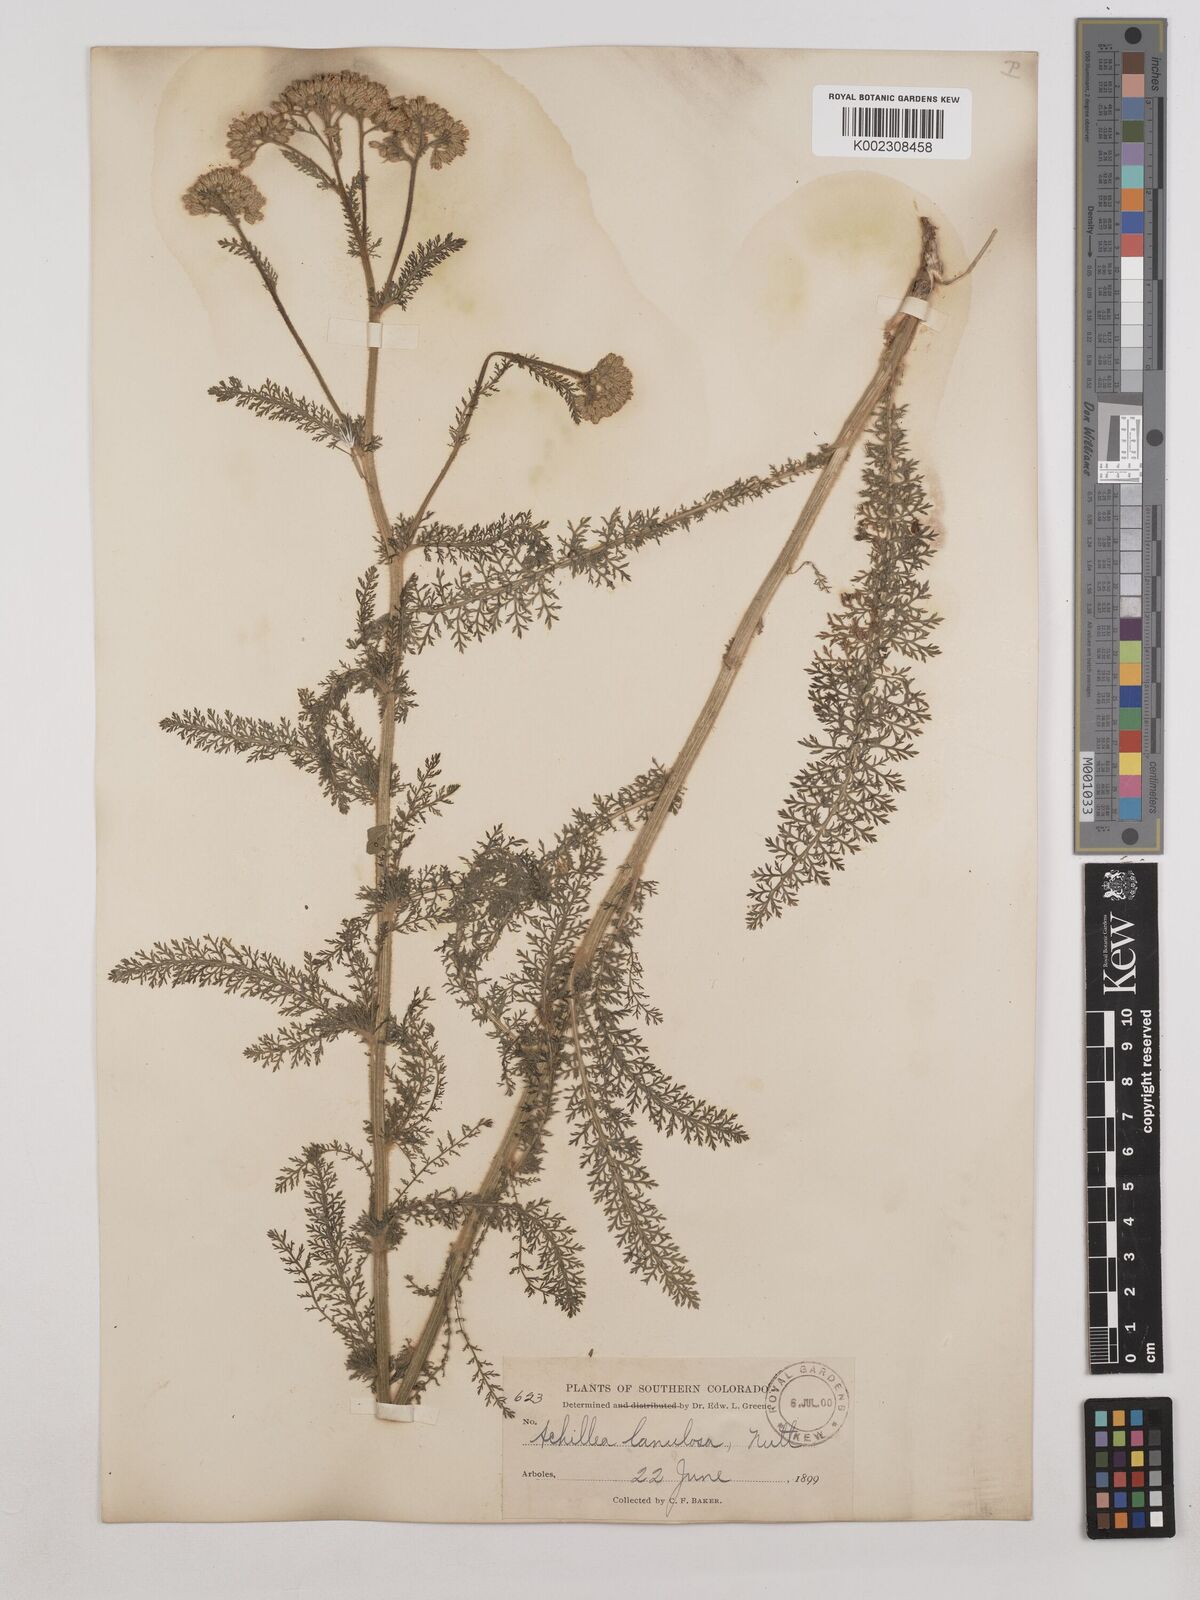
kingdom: Plantae
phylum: Tracheophyta
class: Magnoliopsida
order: Asterales
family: Asteraceae
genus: Achillea
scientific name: Achillea millefolium
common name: Yarrow
